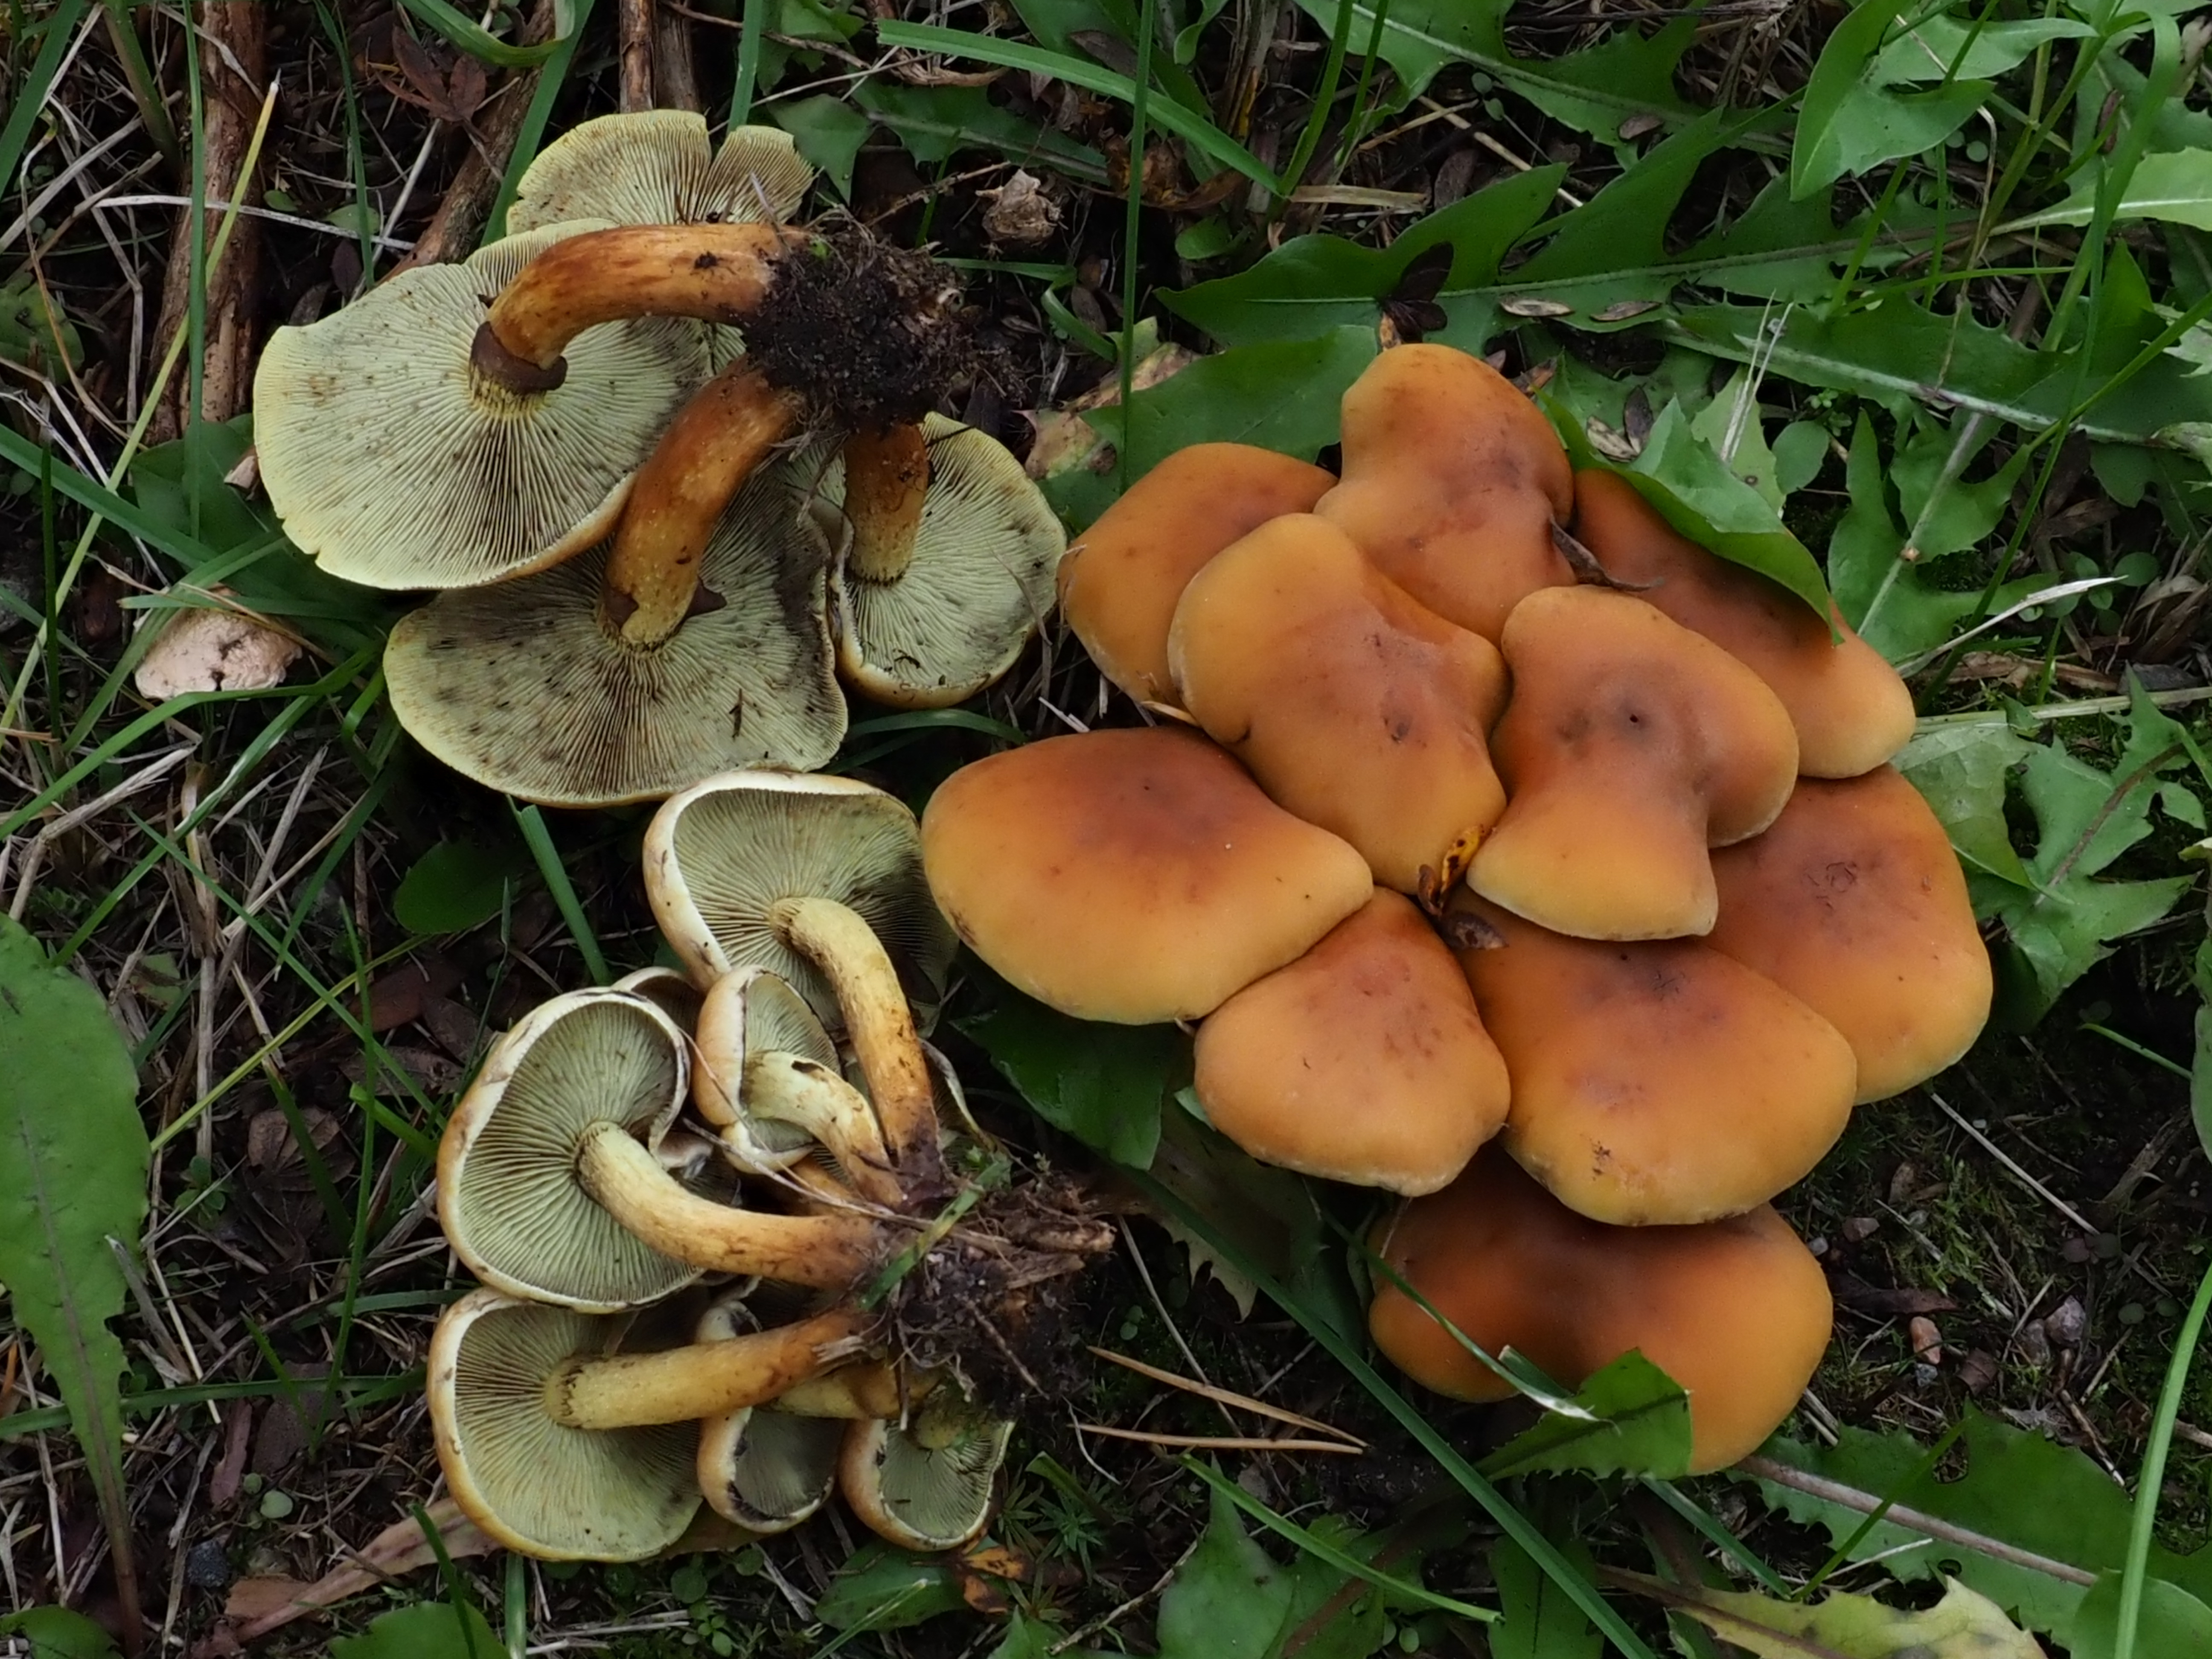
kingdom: Fungi
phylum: Basidiomycota
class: Agaricomycetes
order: Agaricales
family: Strophariaceae
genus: Hypholoma
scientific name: Hypholoma fasciculare
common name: Sulphur tuft
